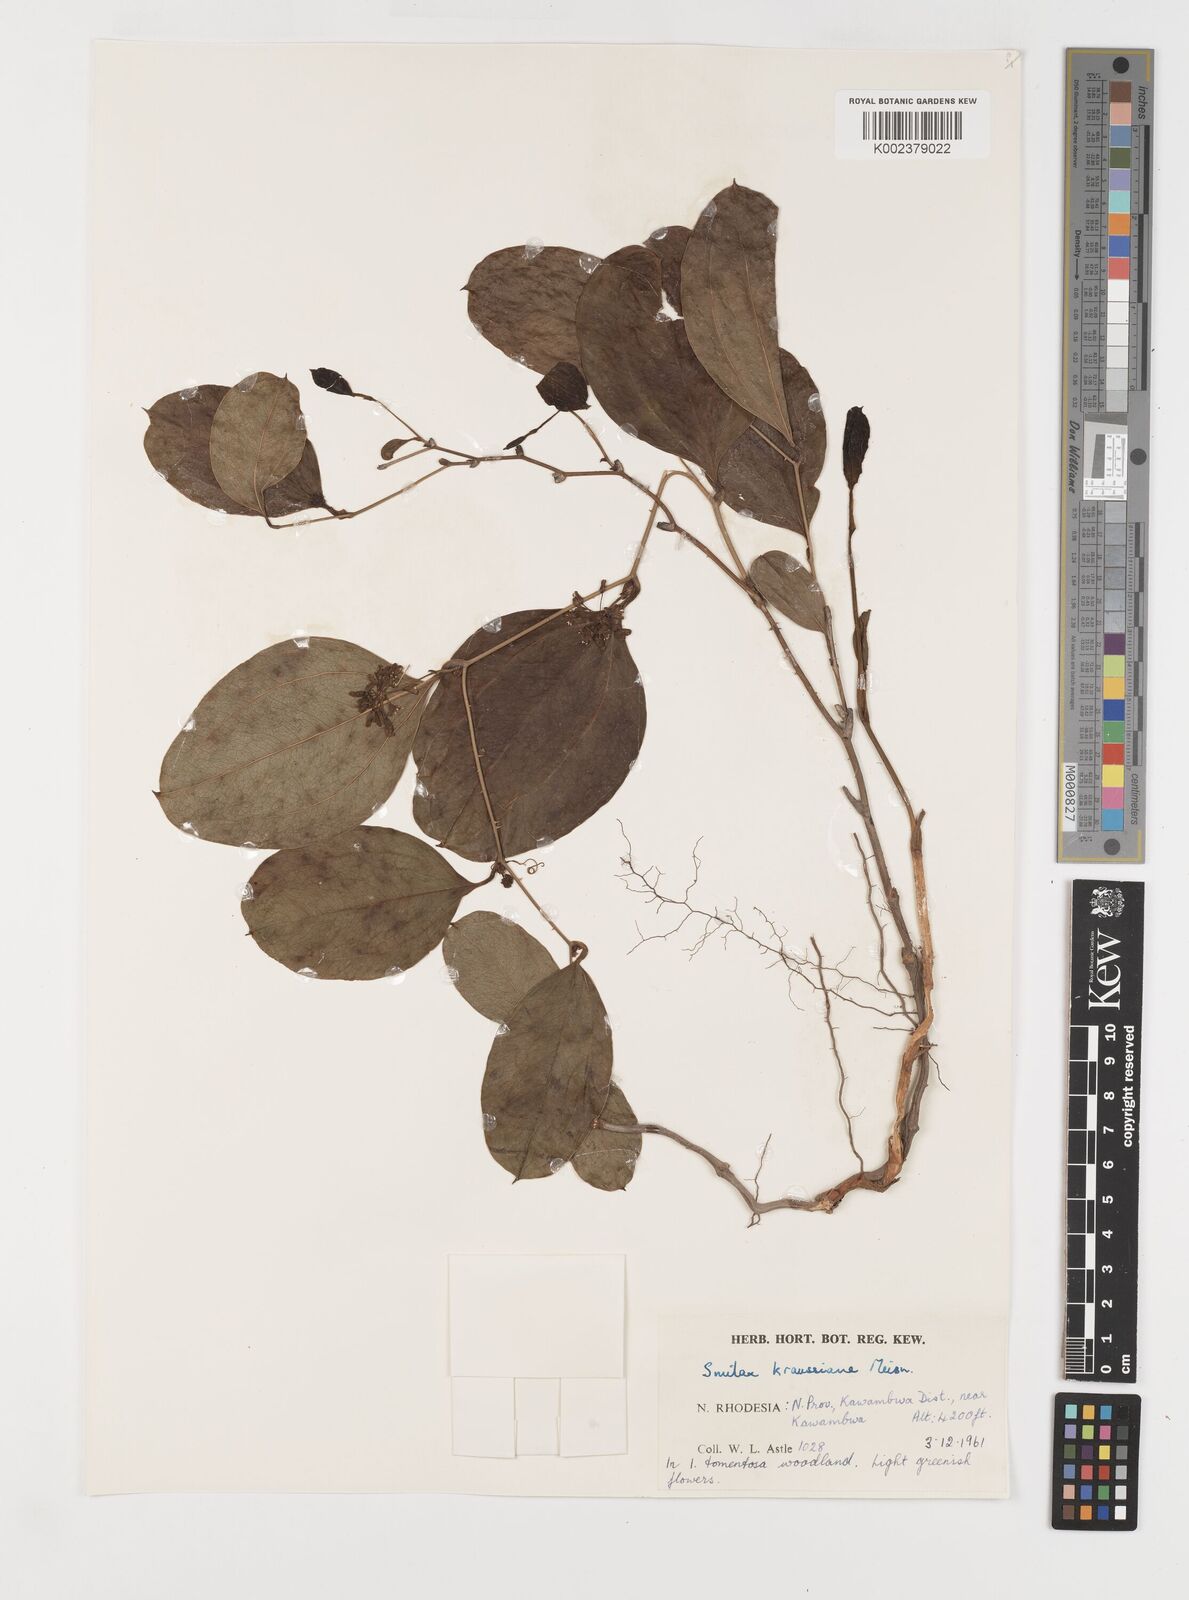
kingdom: Plantae
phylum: Tracheophyta
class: Liliopsida
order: Liliales
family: Smilacaceae
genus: Smilax
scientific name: Smilax anceps
